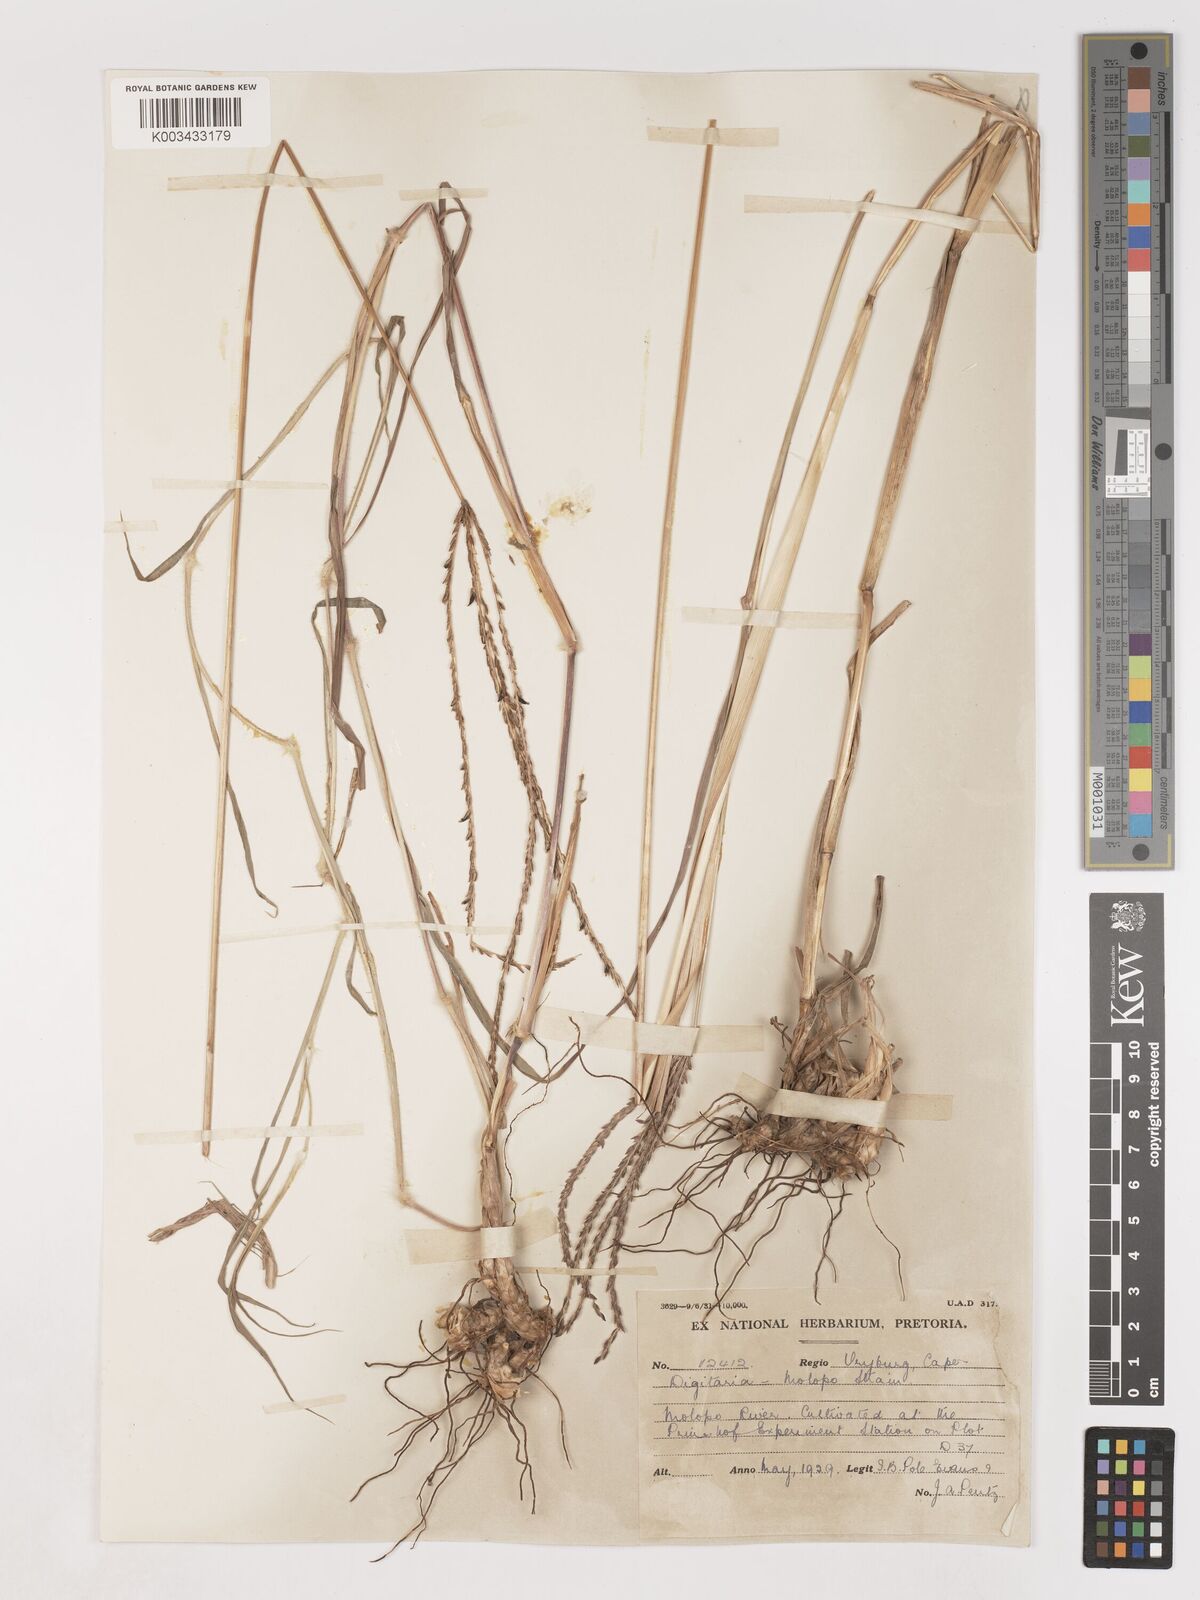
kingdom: Plantae
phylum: Tracheophyta
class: Liliopsida
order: Poales
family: Poaceae
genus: Digitaria
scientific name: Digitaria milanjiana
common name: Madagascar crabgrass
